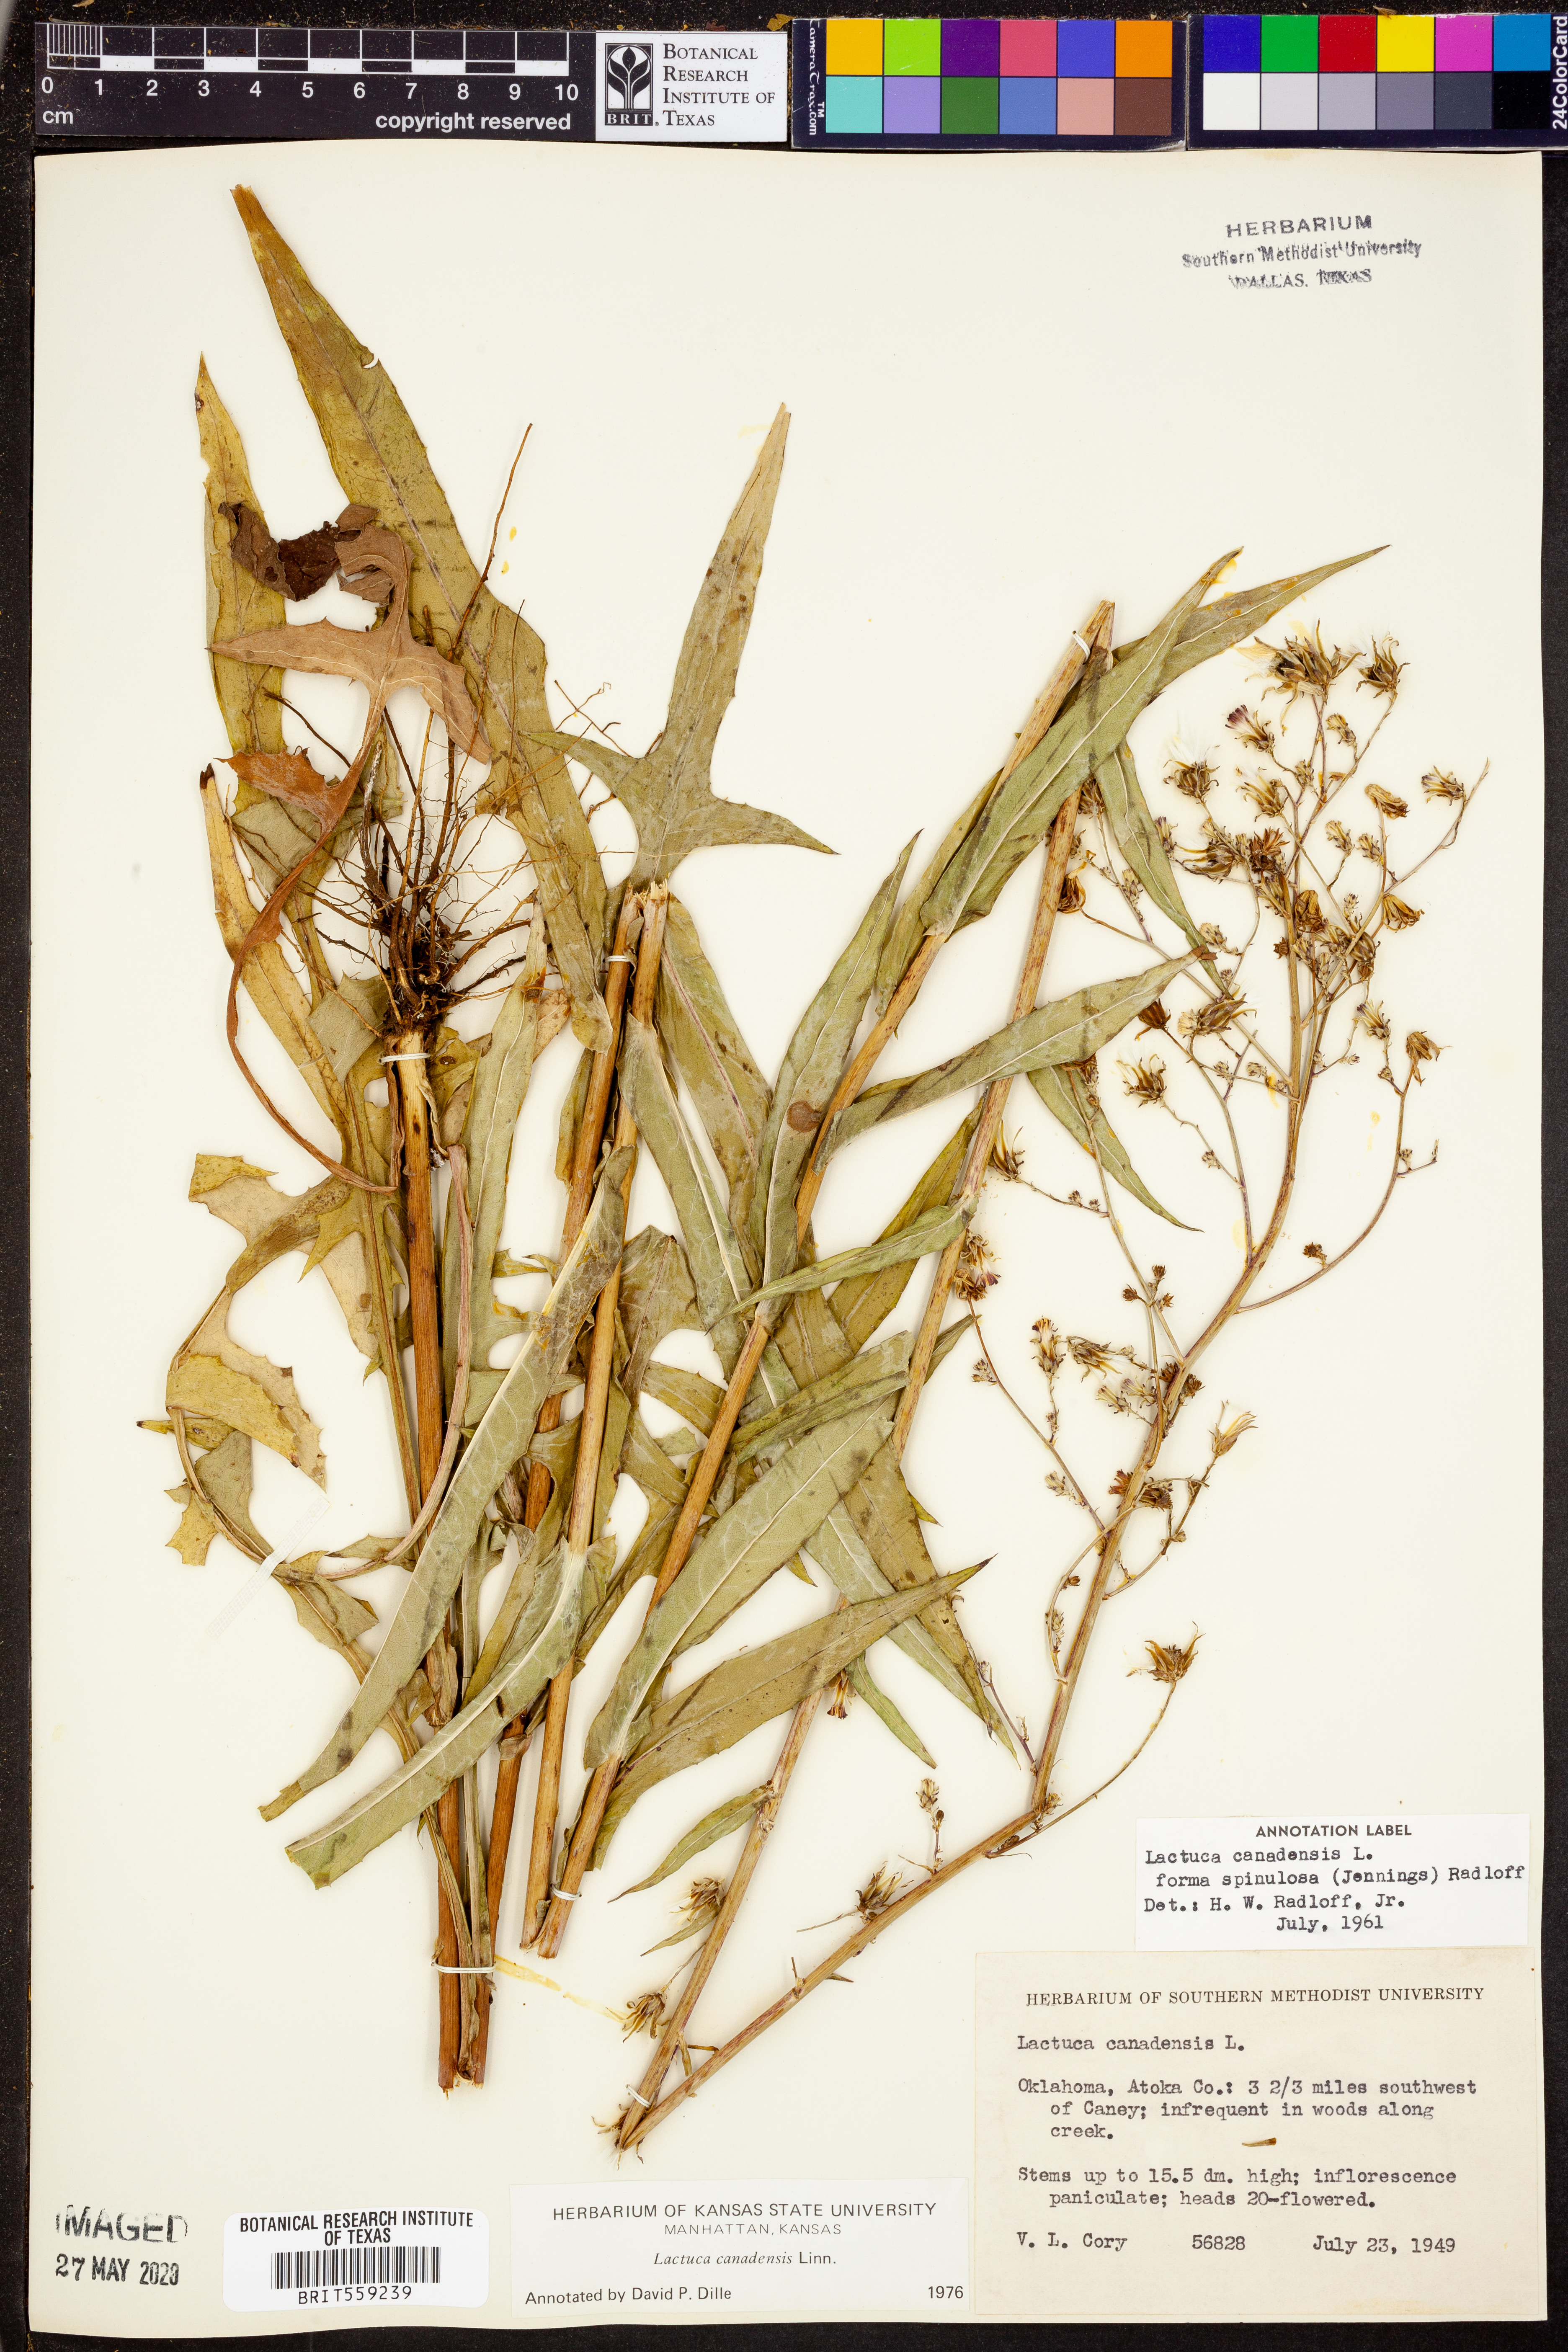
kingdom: Plantae
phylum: Tracheophyta
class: Magnoliopsida
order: Asterales
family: Asteraceae
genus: Lactuca
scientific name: Lactuca canadensis
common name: Canada lettuce
